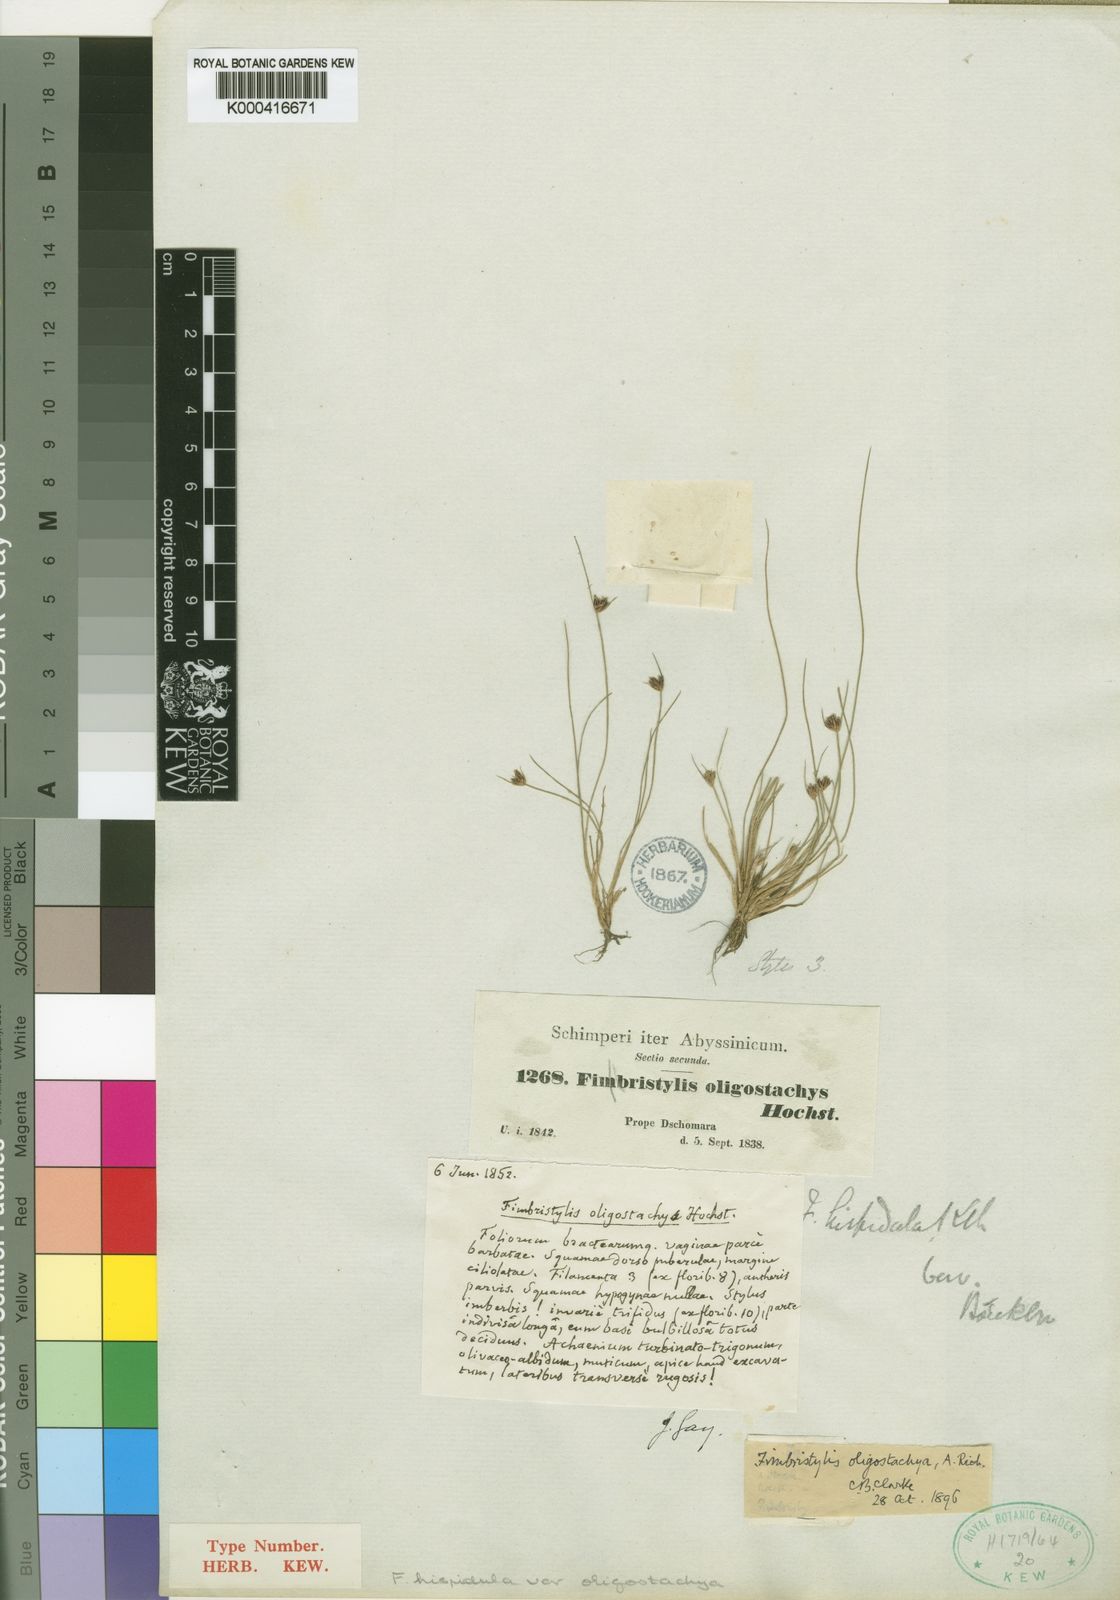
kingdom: Plantae
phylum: Tracheophyta
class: Liliopsida
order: Poales
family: Cyperaceae
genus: Bulbostylis
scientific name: Bulbostylis hispidula
